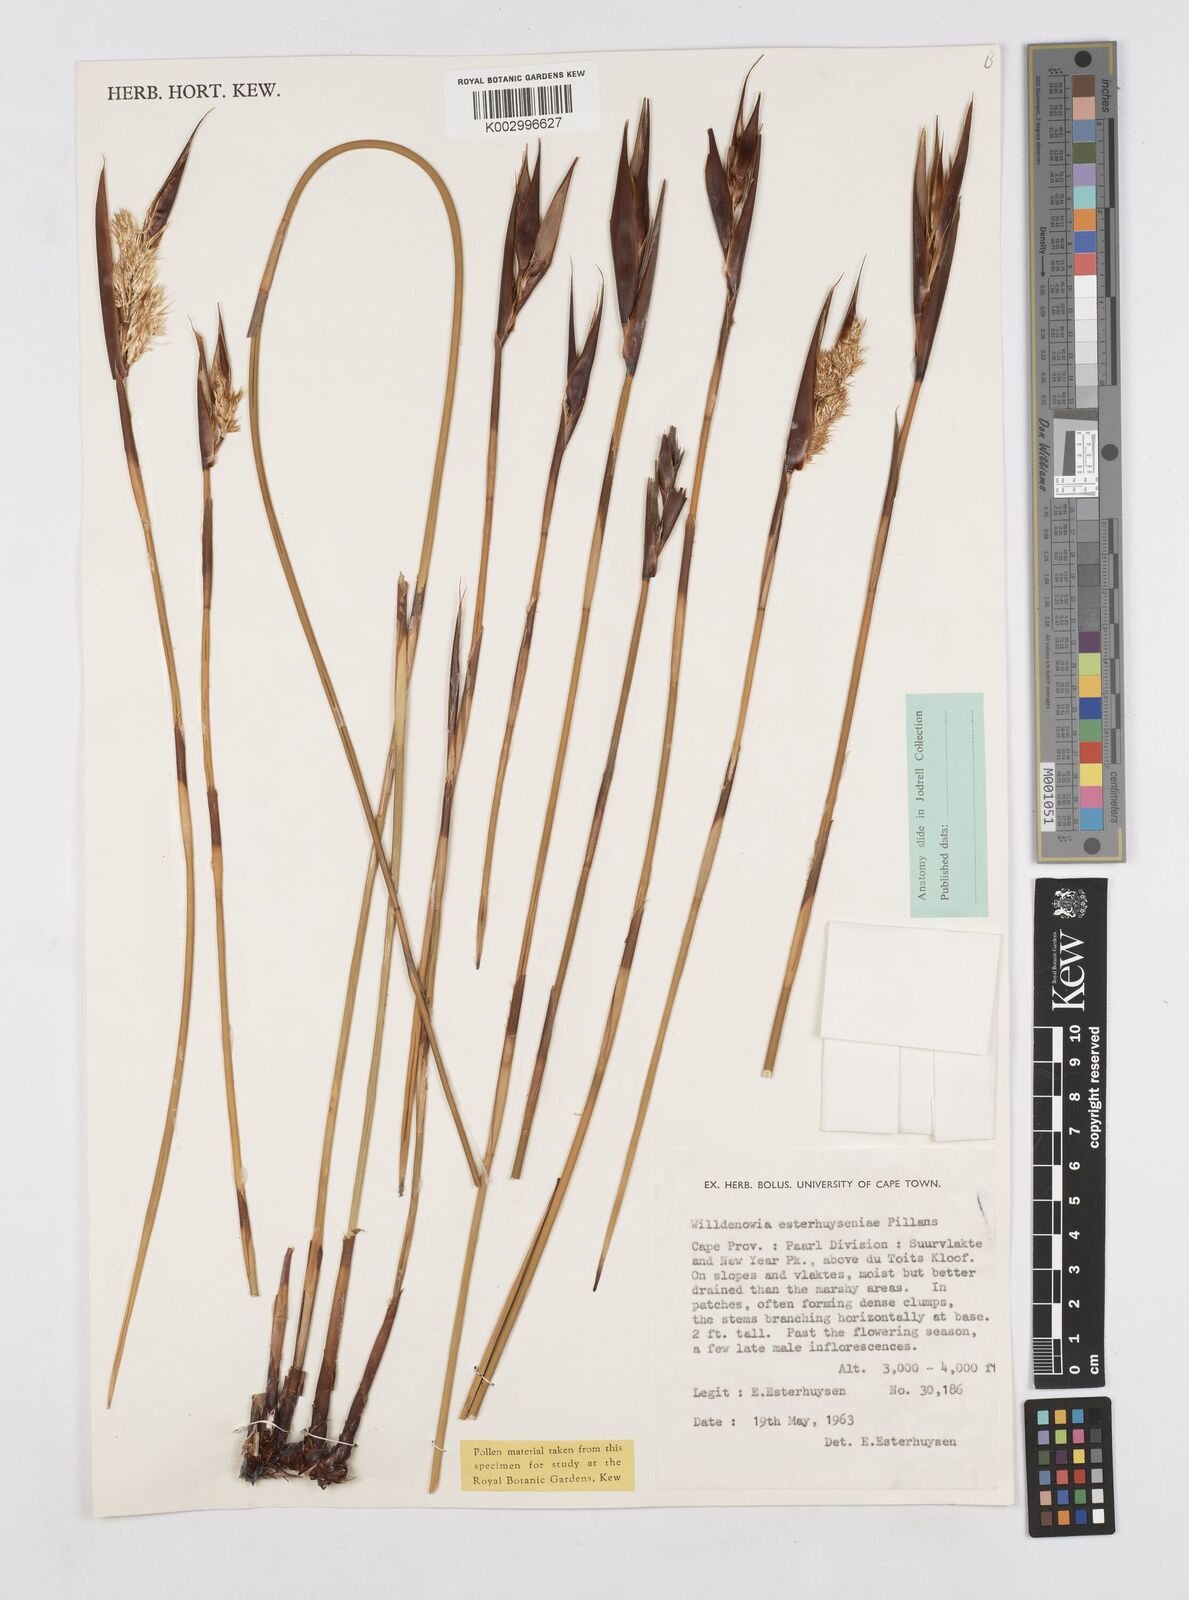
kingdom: Plantae
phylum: Tracheophyta
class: Liliopsida
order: Poales
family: Restionaceae
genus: Ceratocaryum
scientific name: Ceratocaryum fimbriatum
